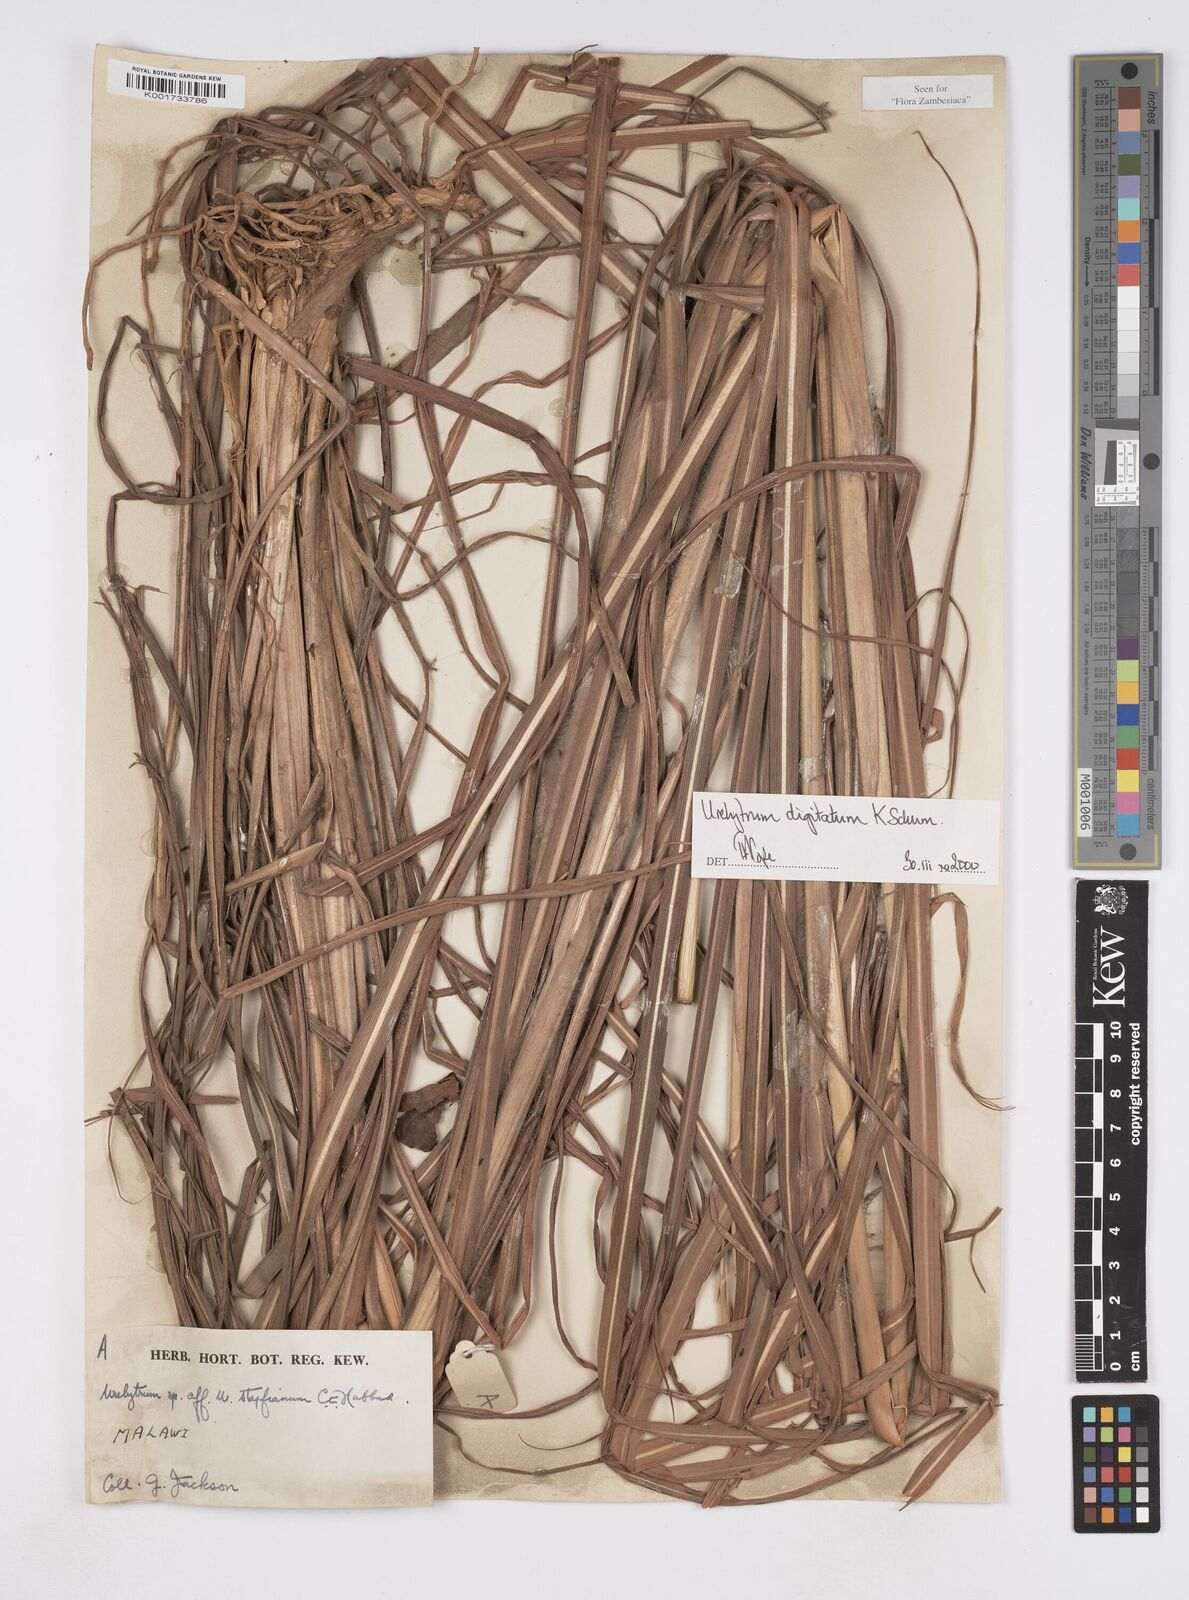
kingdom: Plantae
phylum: Tracheophyta
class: Liliopsida
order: Poales
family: Poaceae
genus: Urelytrum
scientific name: Urelytrum digitatum
